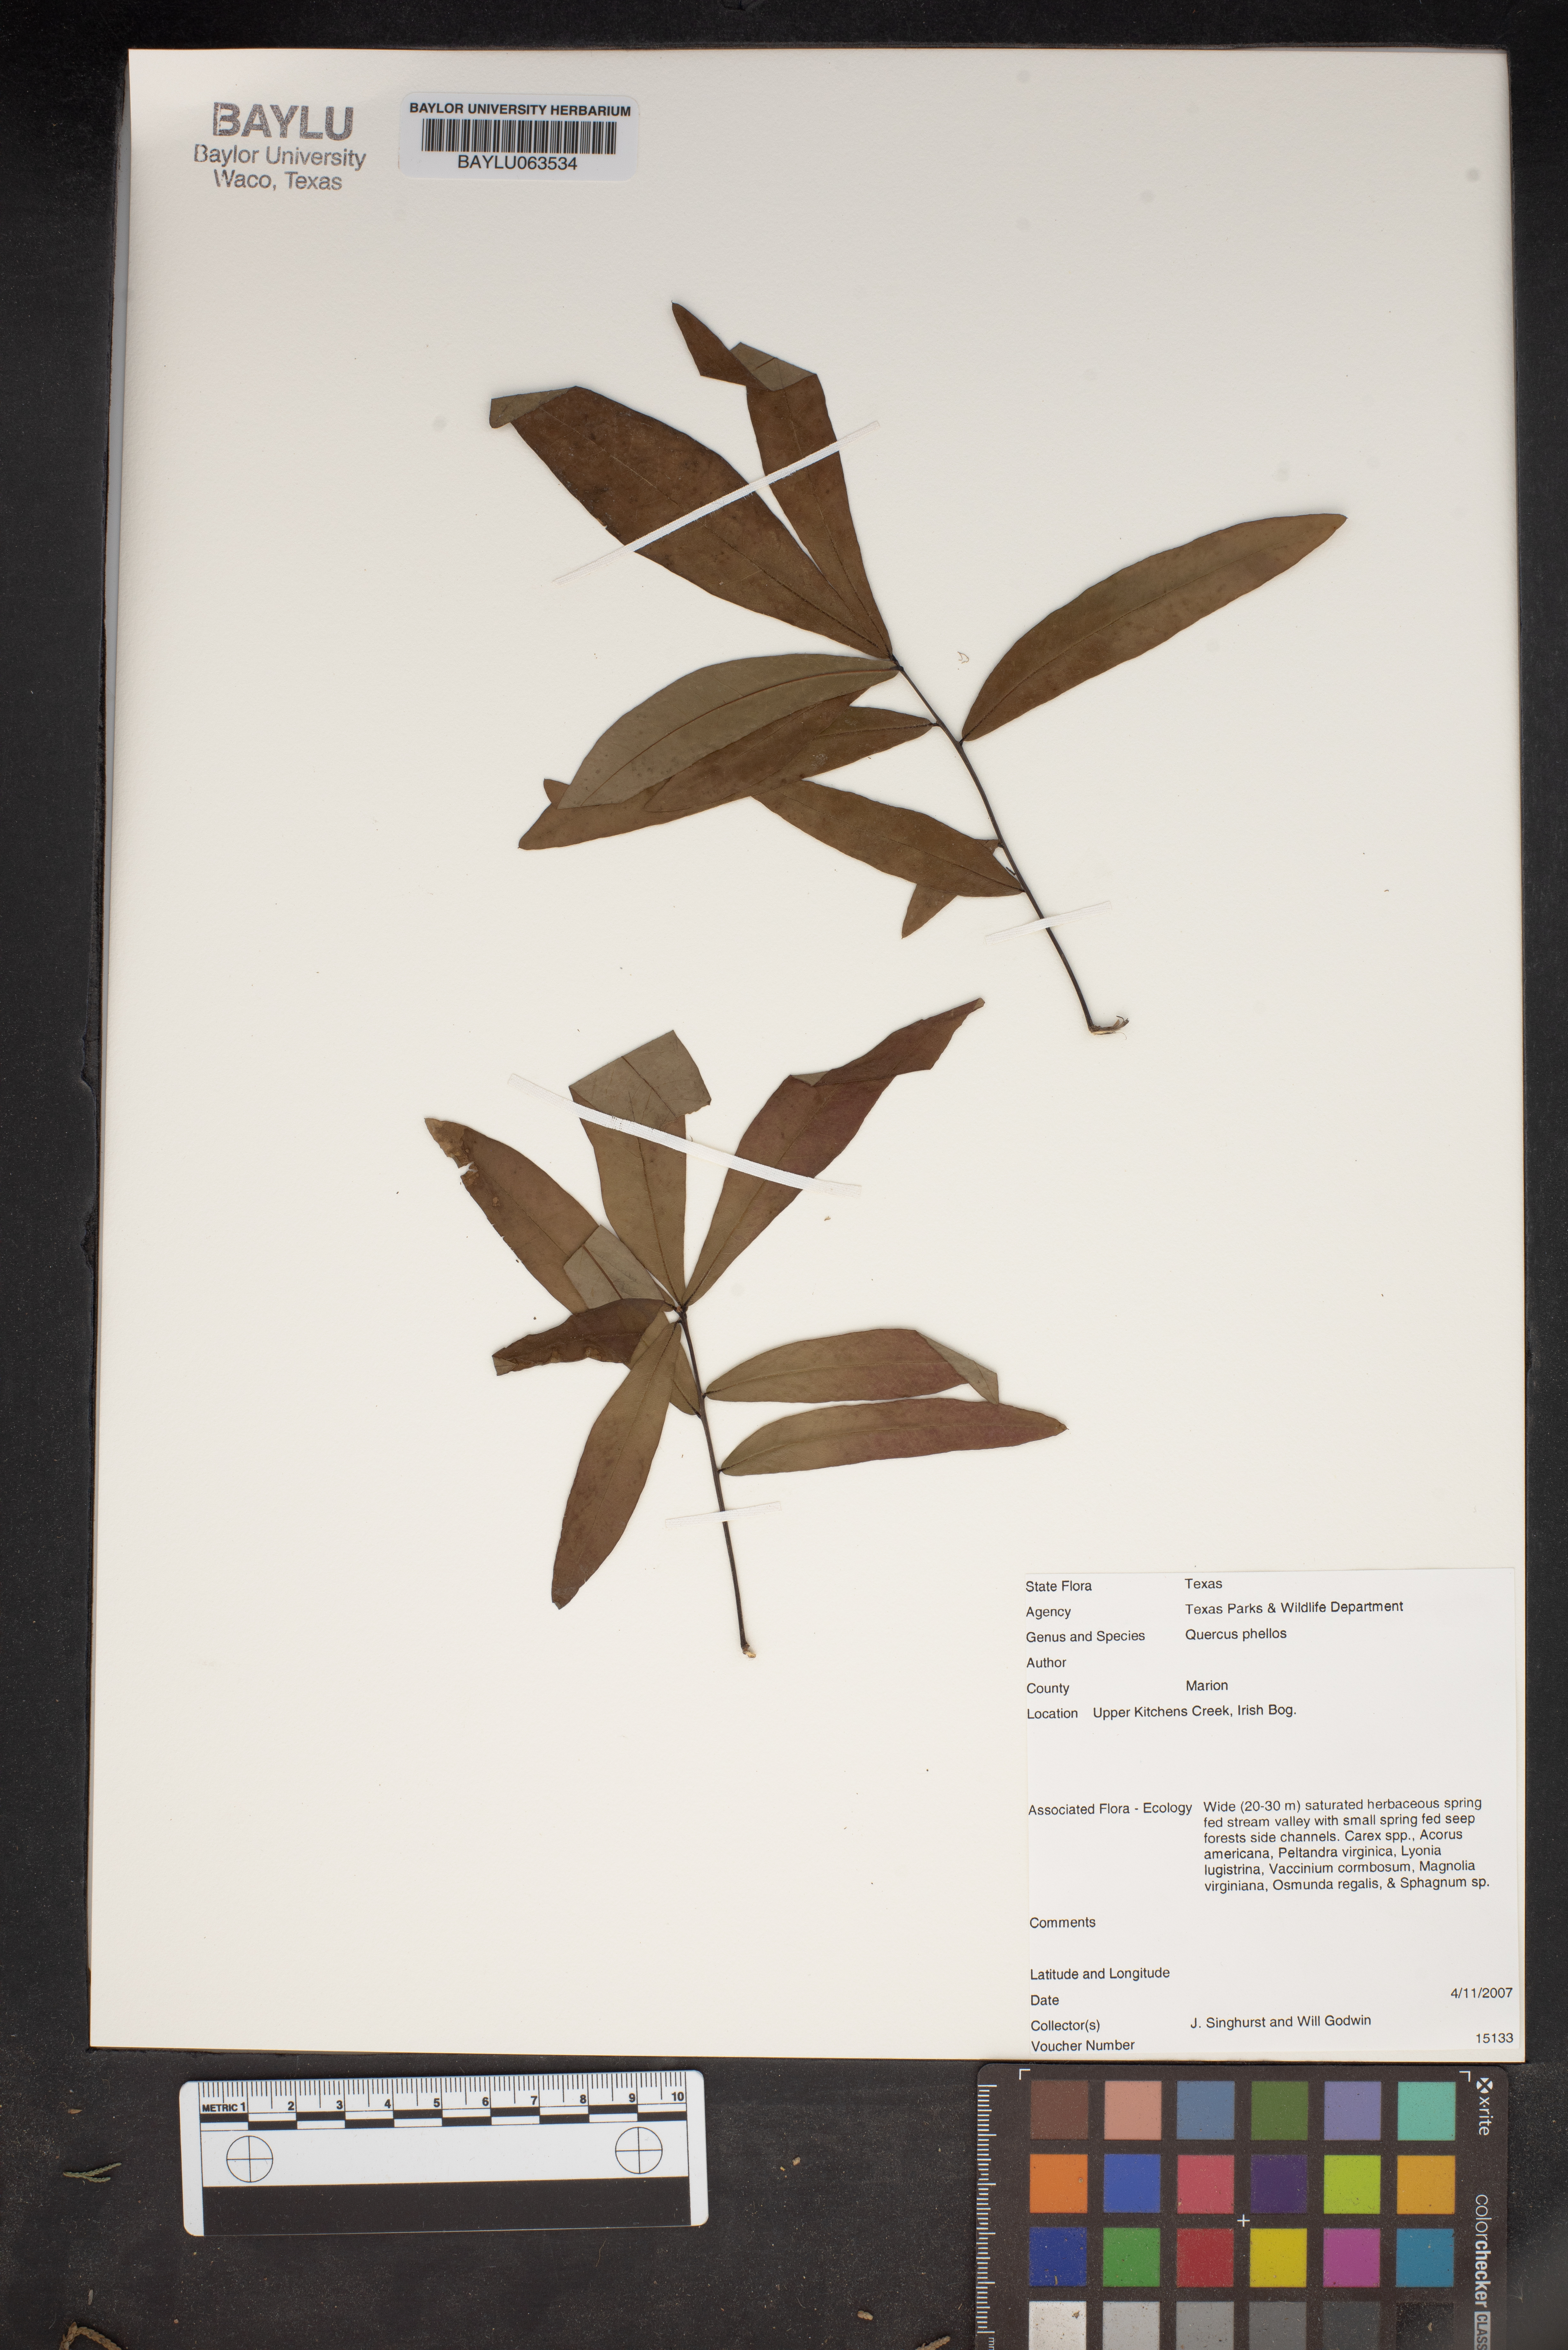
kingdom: Plantae
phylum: Tracheophyta
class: Magnoliopsida
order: Fagales
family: Fagaceae
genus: Quercus
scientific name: Quercus phellos
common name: Willow oak
